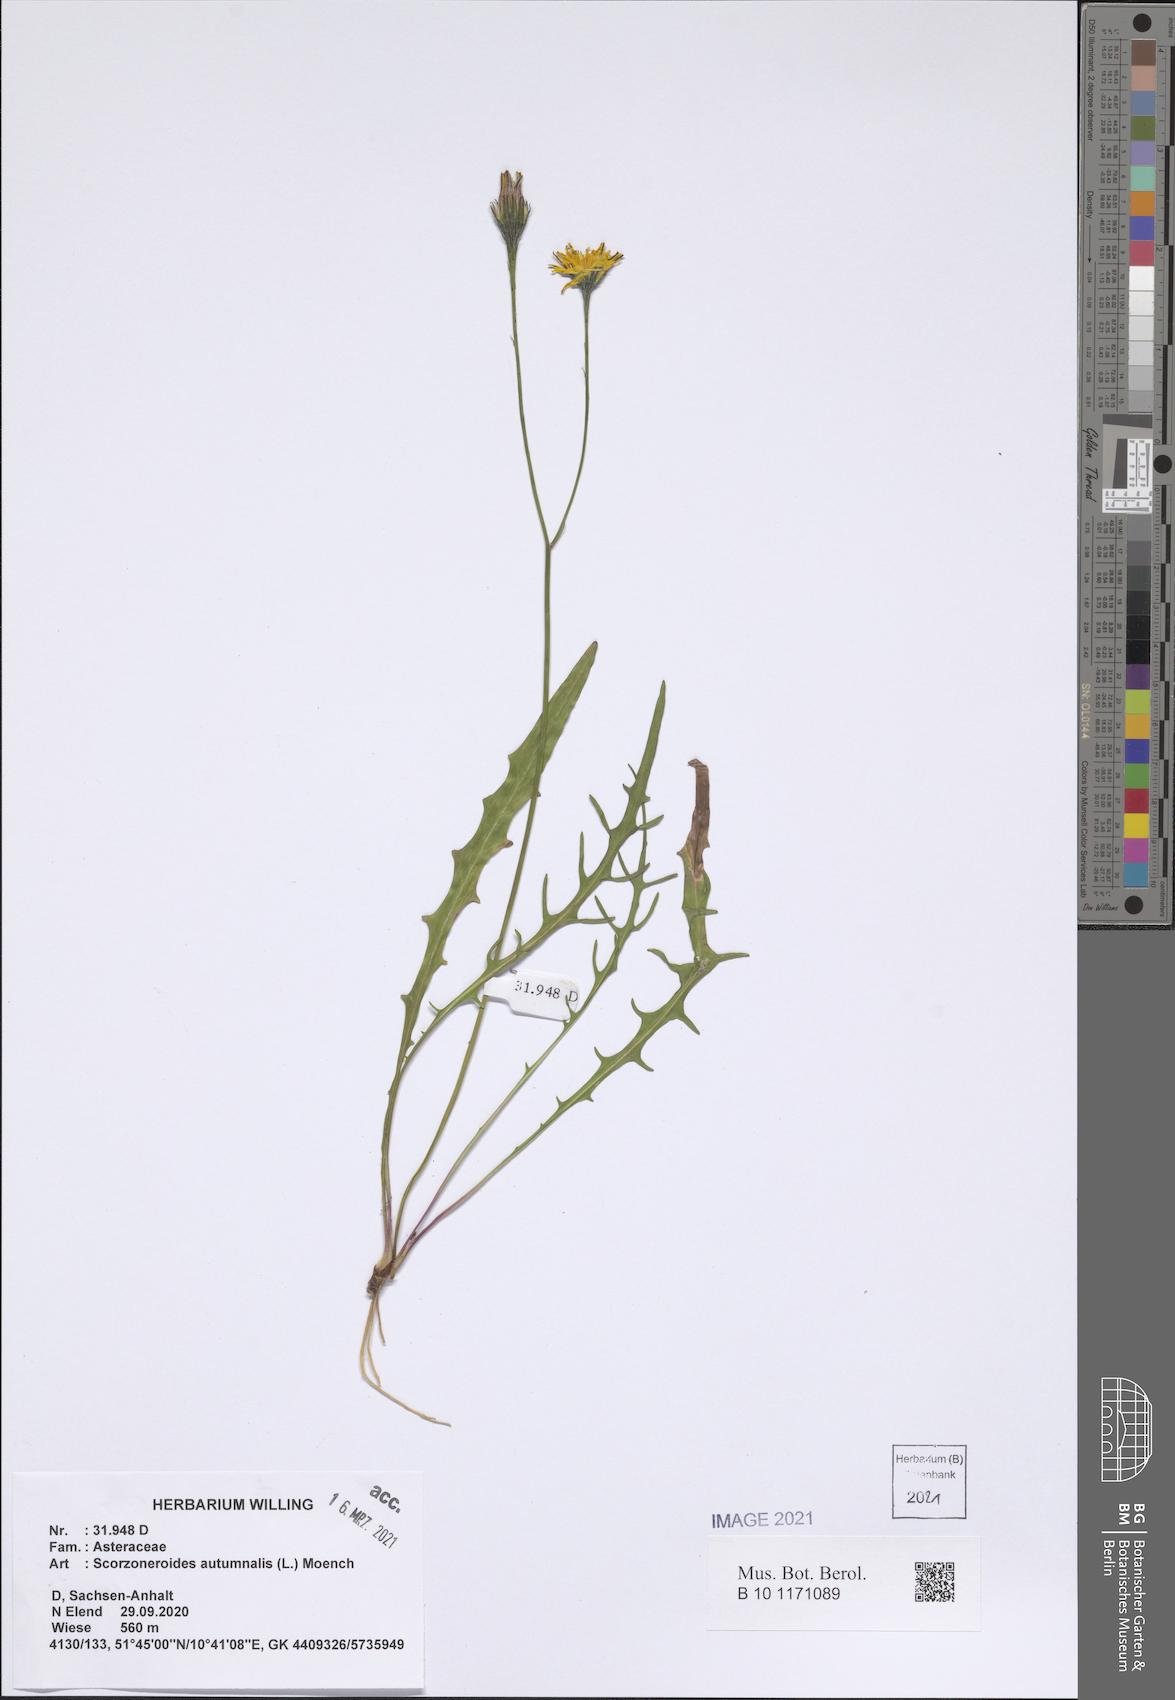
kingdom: Plantae
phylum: Tracheophyta
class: Magnoliopsida
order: Asterales
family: Asteraceae
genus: Scorzoneroides
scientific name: Scorzoneroides autumnalis
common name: Autumn hawkbit
